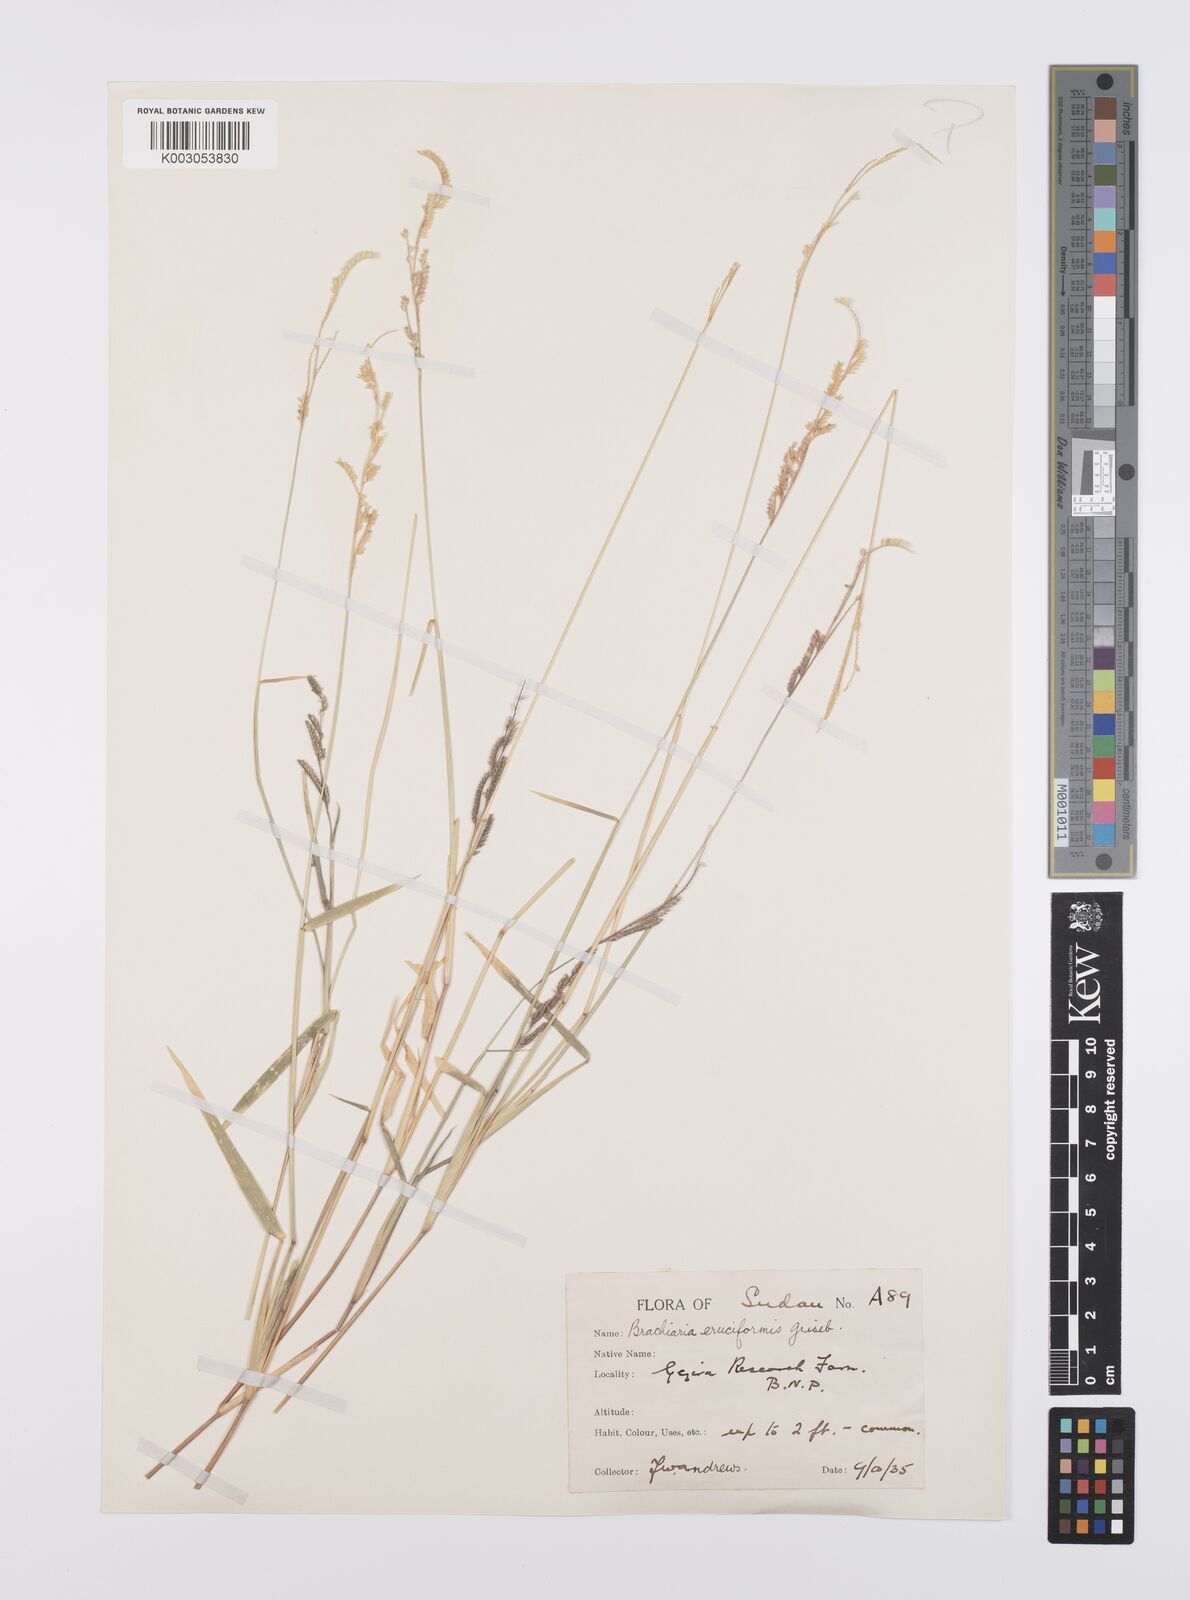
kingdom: Plantae
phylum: Tracheophyta
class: Liliopsida
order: Poales
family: Poaceae
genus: Moorochloa
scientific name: Moorochloa eruciformis
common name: Sweet signalgrass
